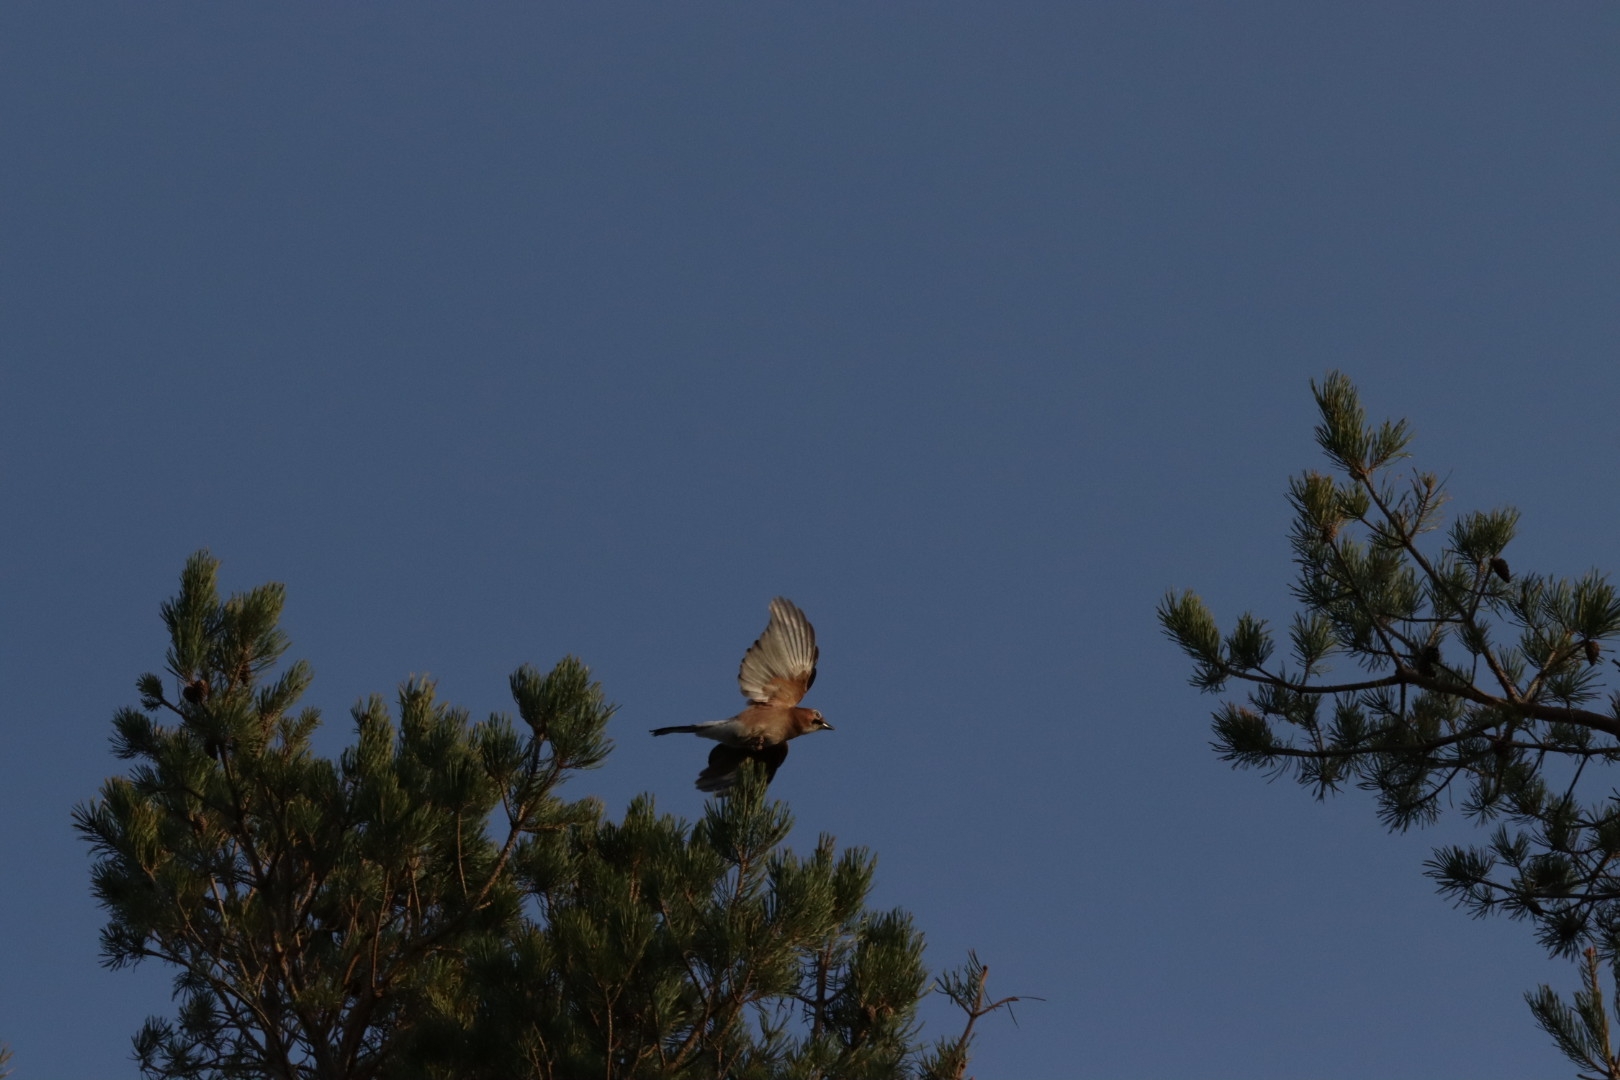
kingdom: Animalia
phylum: Chordata
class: Aves
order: Passeriformes
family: Corvidae
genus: Garrulus
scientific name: Garrulus glandarius
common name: Skovskade
